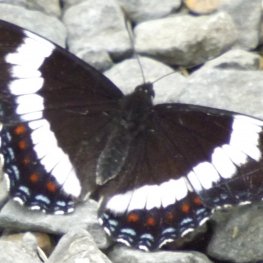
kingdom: Animalia
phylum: Arthropoda
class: Insecta
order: Lepidoptera
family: Nymphalidae
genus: Limenitis
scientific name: Limenitis arthemis
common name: Red-spotted Admiral
